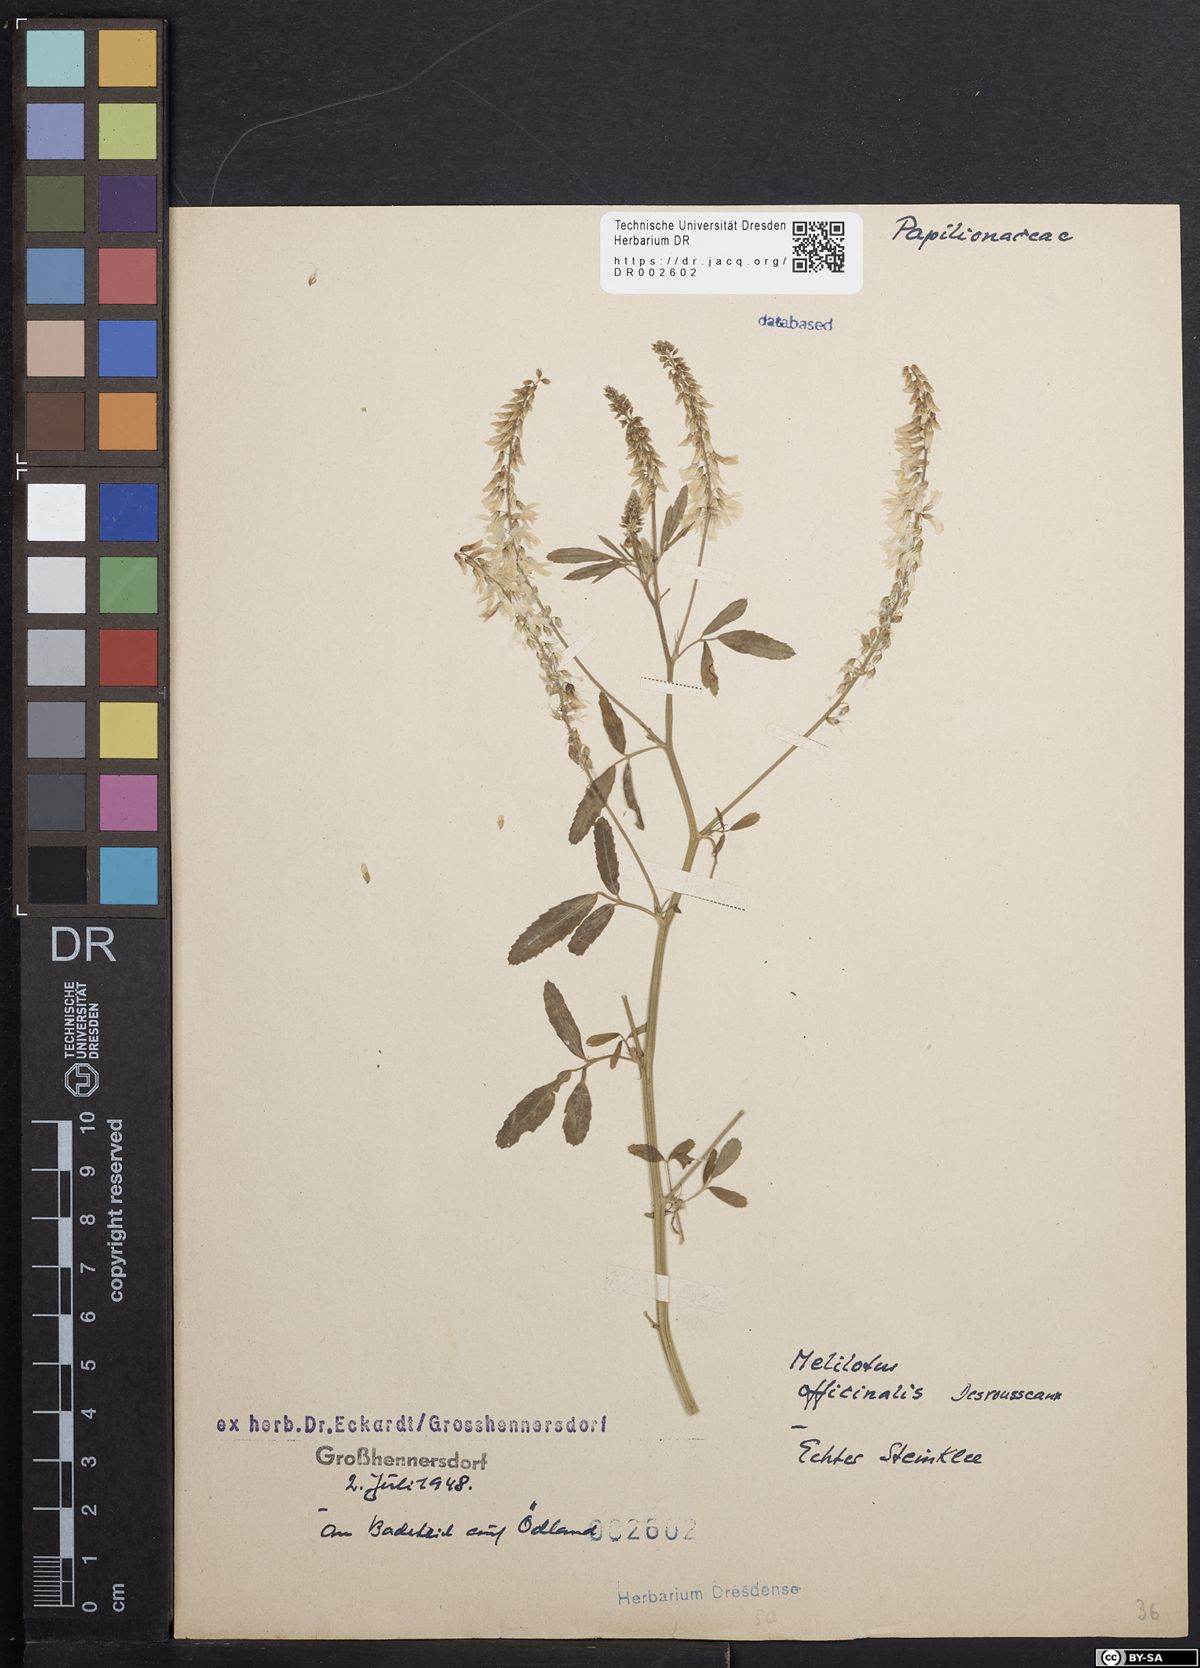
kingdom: Plantae
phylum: Tracheophyta
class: Magnoliopsida
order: Fabales
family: Fabaceae
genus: Melilotus
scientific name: Melilotus officinalis
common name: Sweetclover
